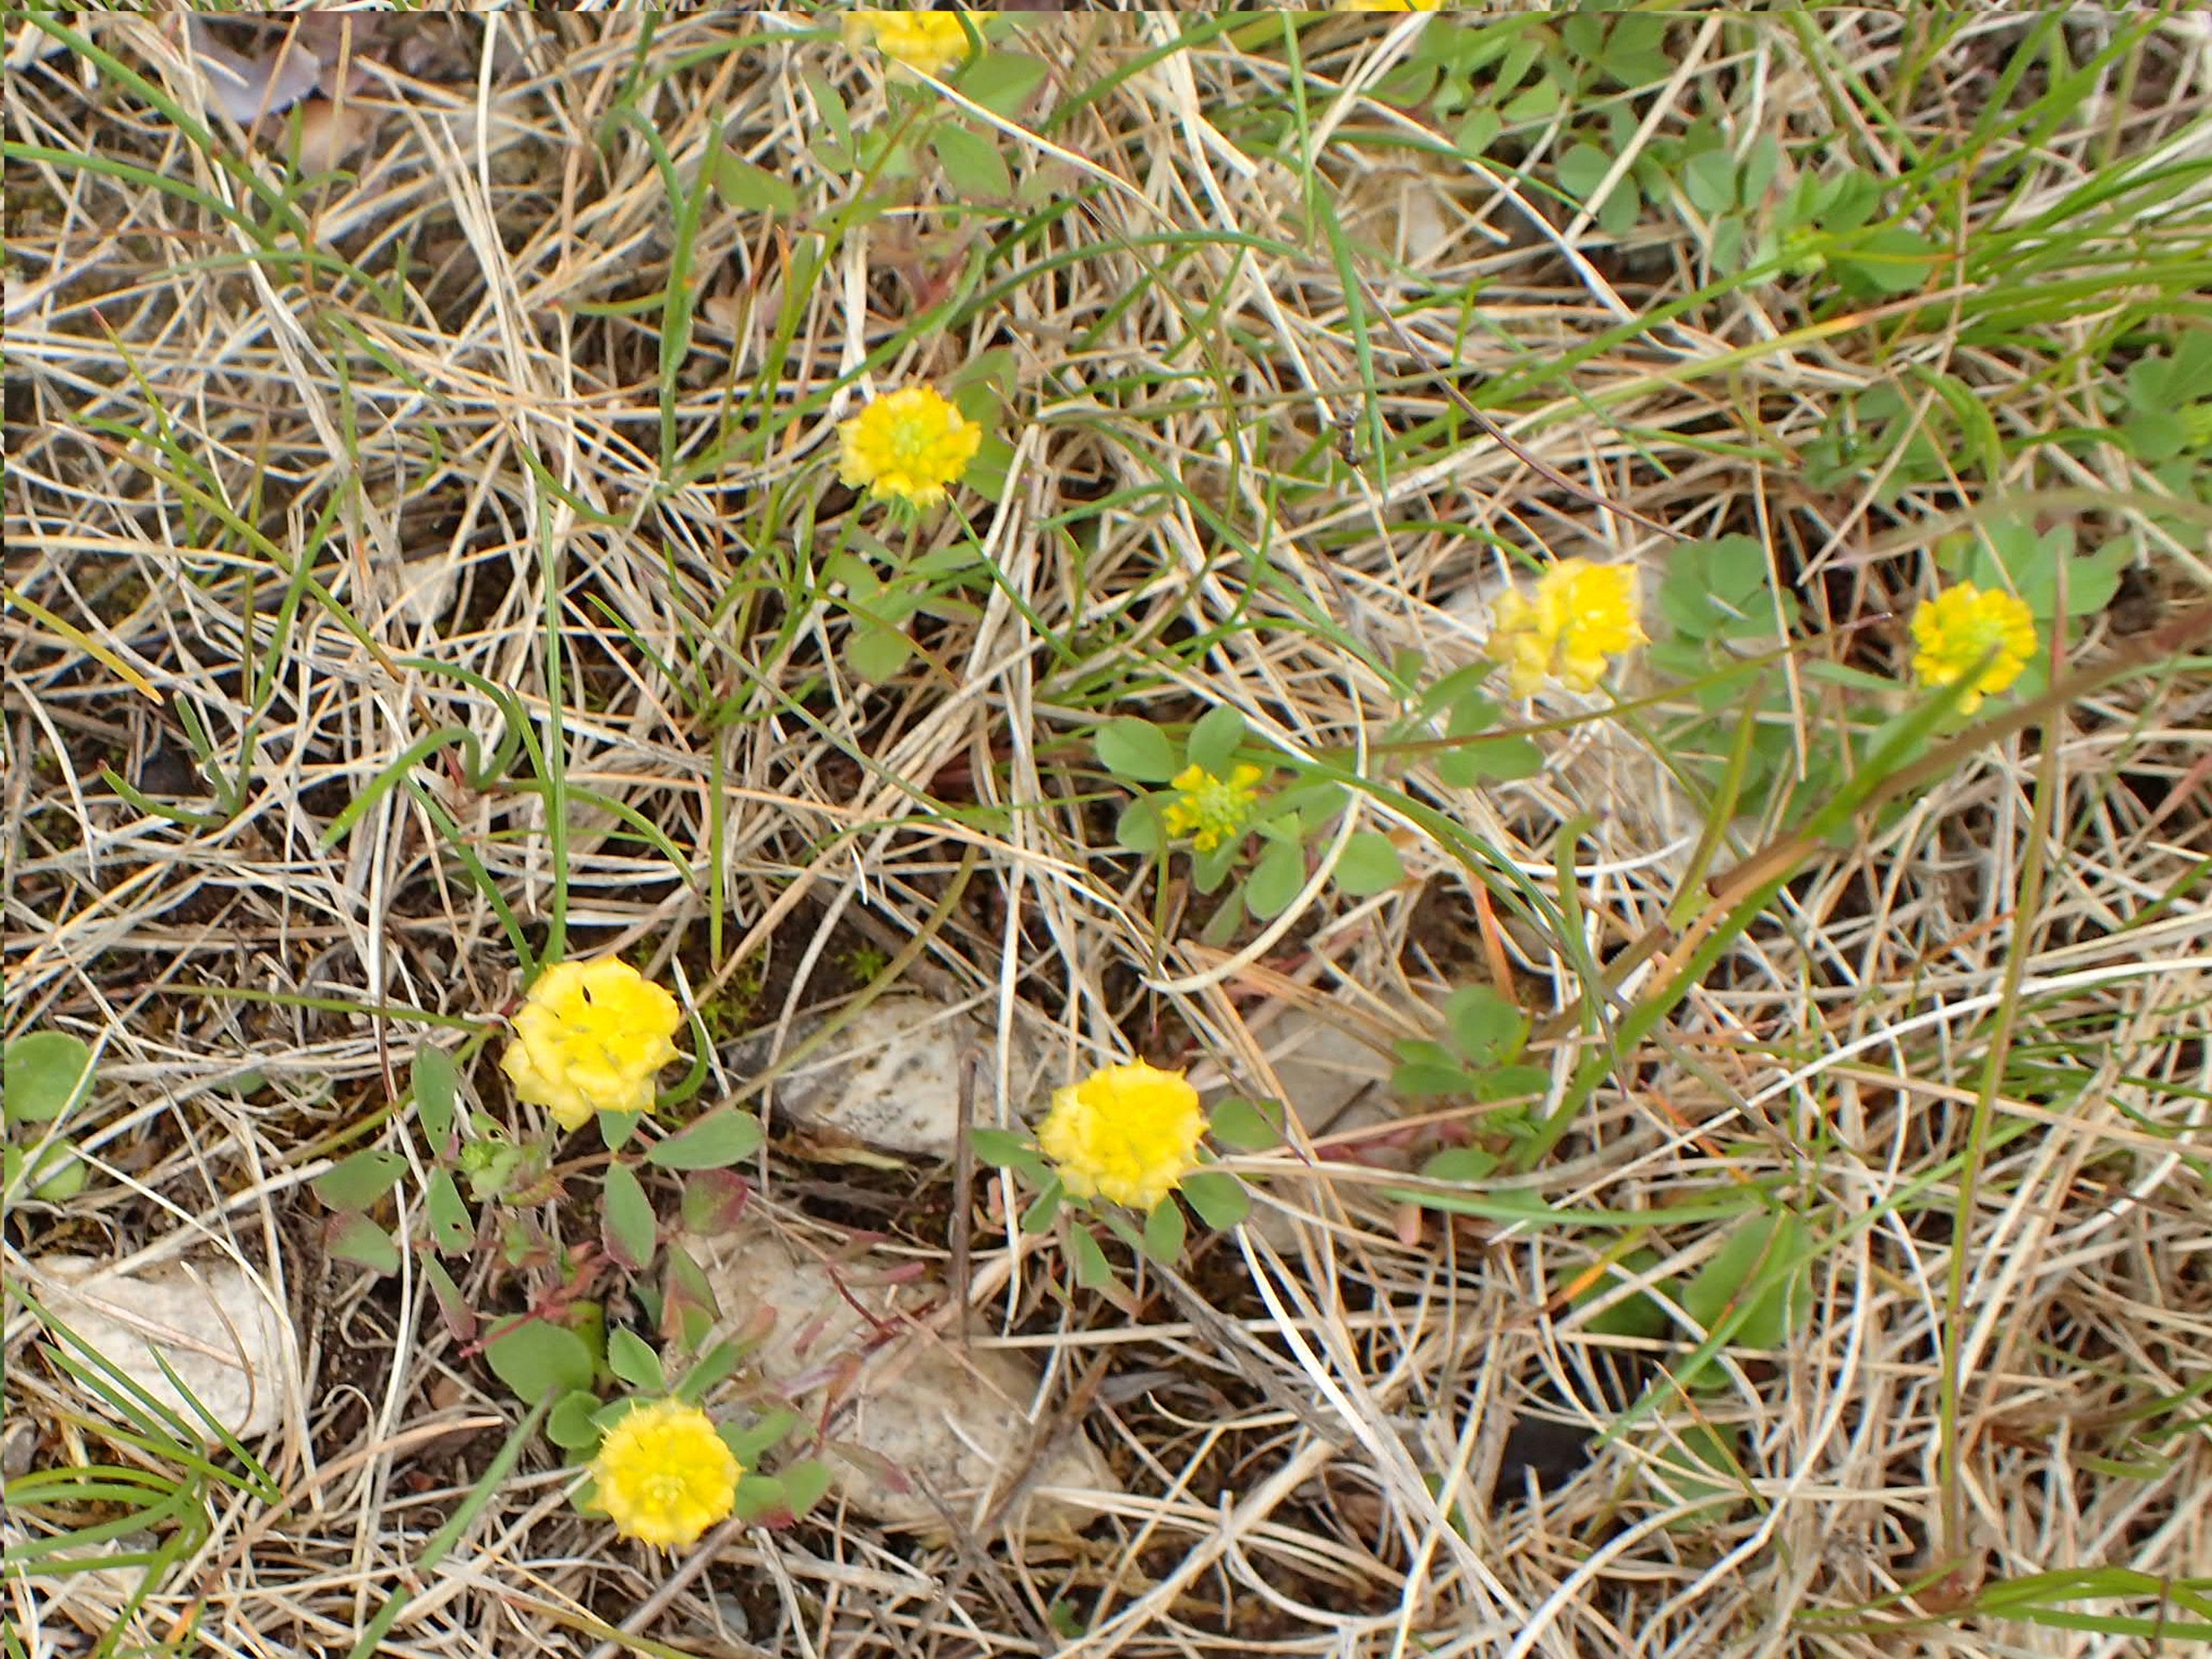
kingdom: Plantae
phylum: Tracheophyta
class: Magnoliopsida
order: Fabales
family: Fabaceae
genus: Trifolium
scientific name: Trifolium campestre
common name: Gul kløver
